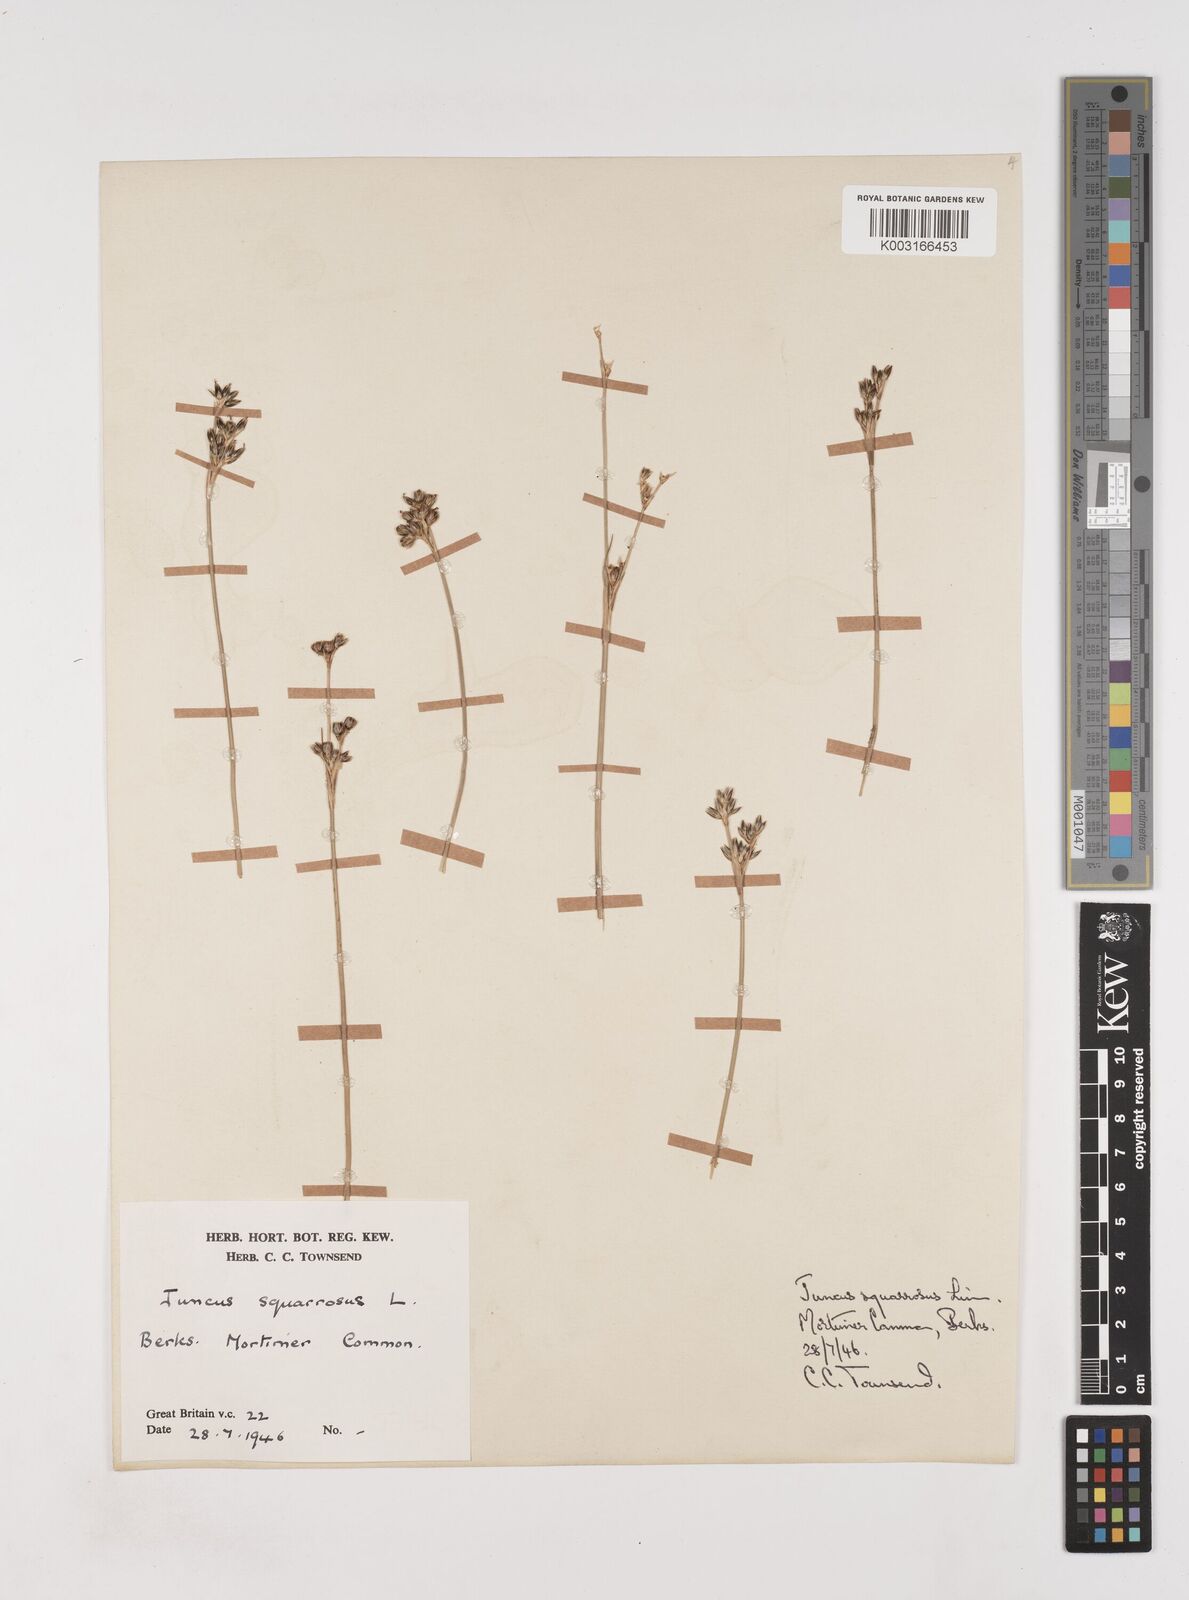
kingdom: Plantae
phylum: Tracheophyta
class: Liliopsida
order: Poales
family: Juncaceae
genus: Juncus
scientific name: Juncus squarrosus
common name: Heath rush
